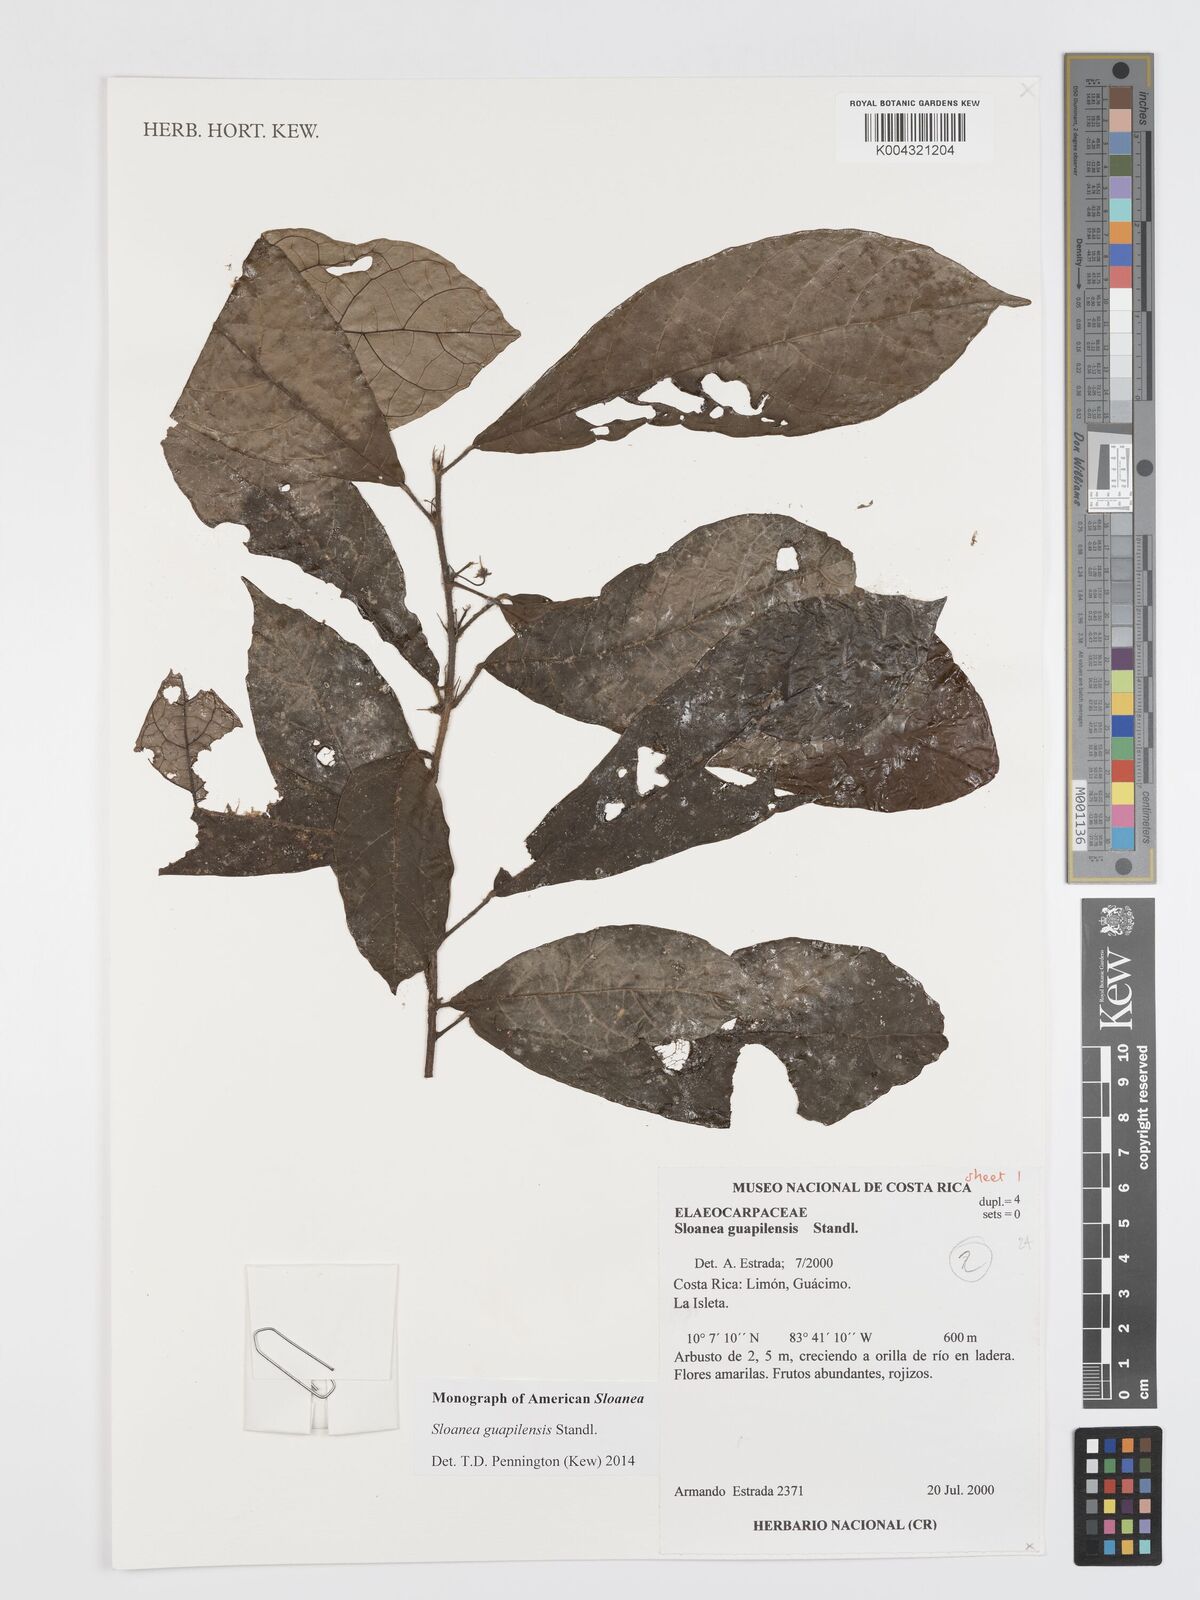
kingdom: Plantae
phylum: Tracheophyta
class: Magnoliopsida
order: Oxalidales
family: Elaeocarpaceae
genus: Sloanea
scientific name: Sloanea guapilensis
